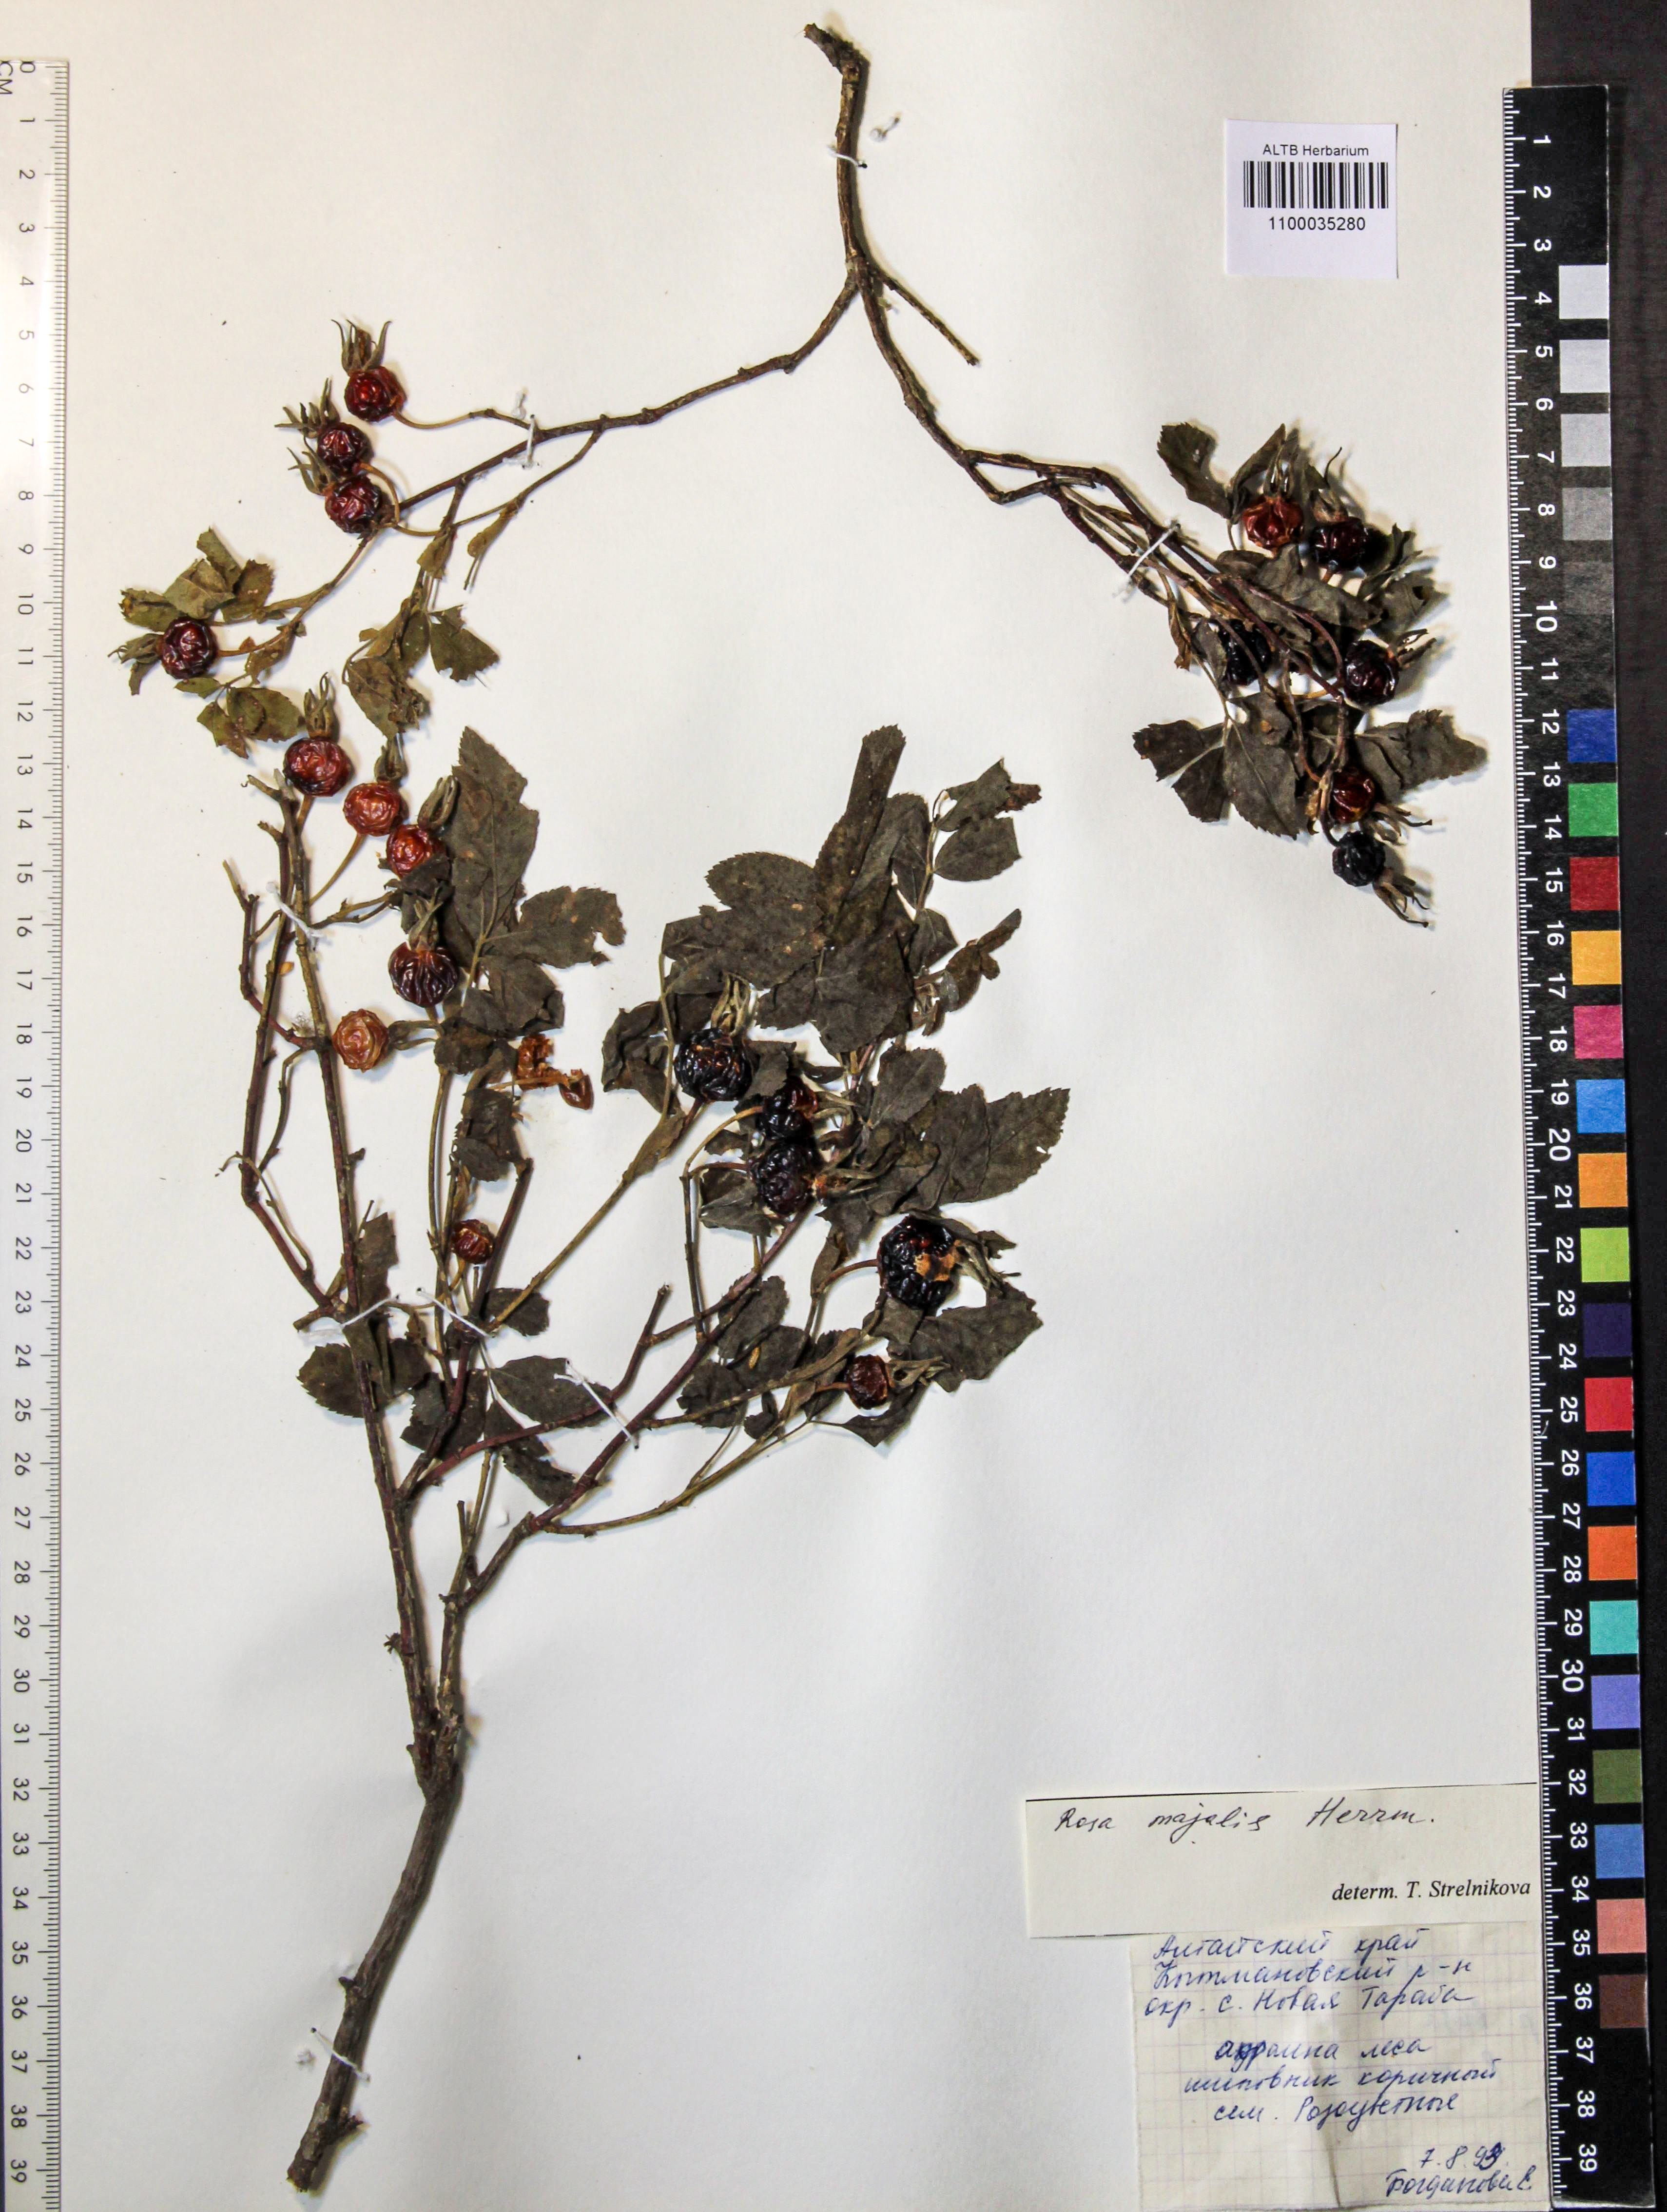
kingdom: Plantae
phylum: Tracheophyta
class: Magnoliopsida
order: Rosales
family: Rosaceae
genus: Rosa
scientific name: Rosa majalis
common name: Cinnamon rose
